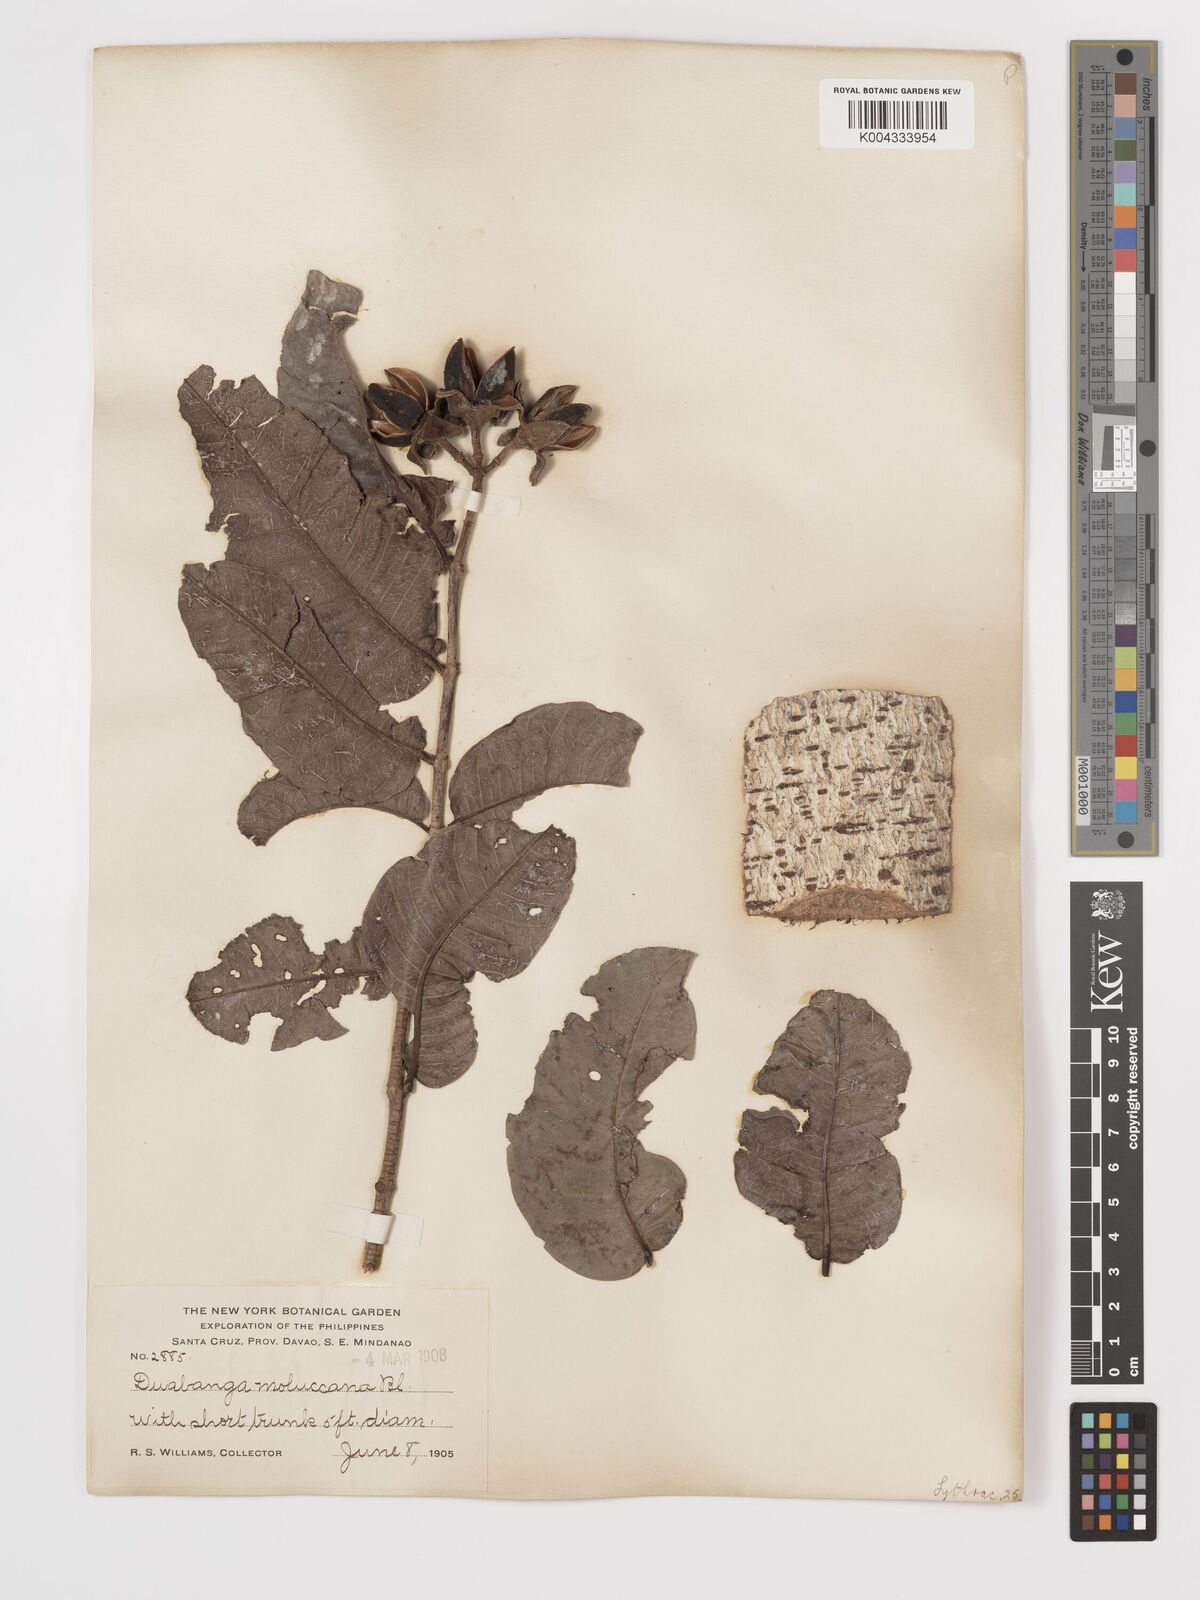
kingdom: Plantae
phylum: Tracheophyta
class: Magnoliopsida
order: Myrtales
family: Lythraceae
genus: Duabanga
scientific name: Duabanga moluccana
